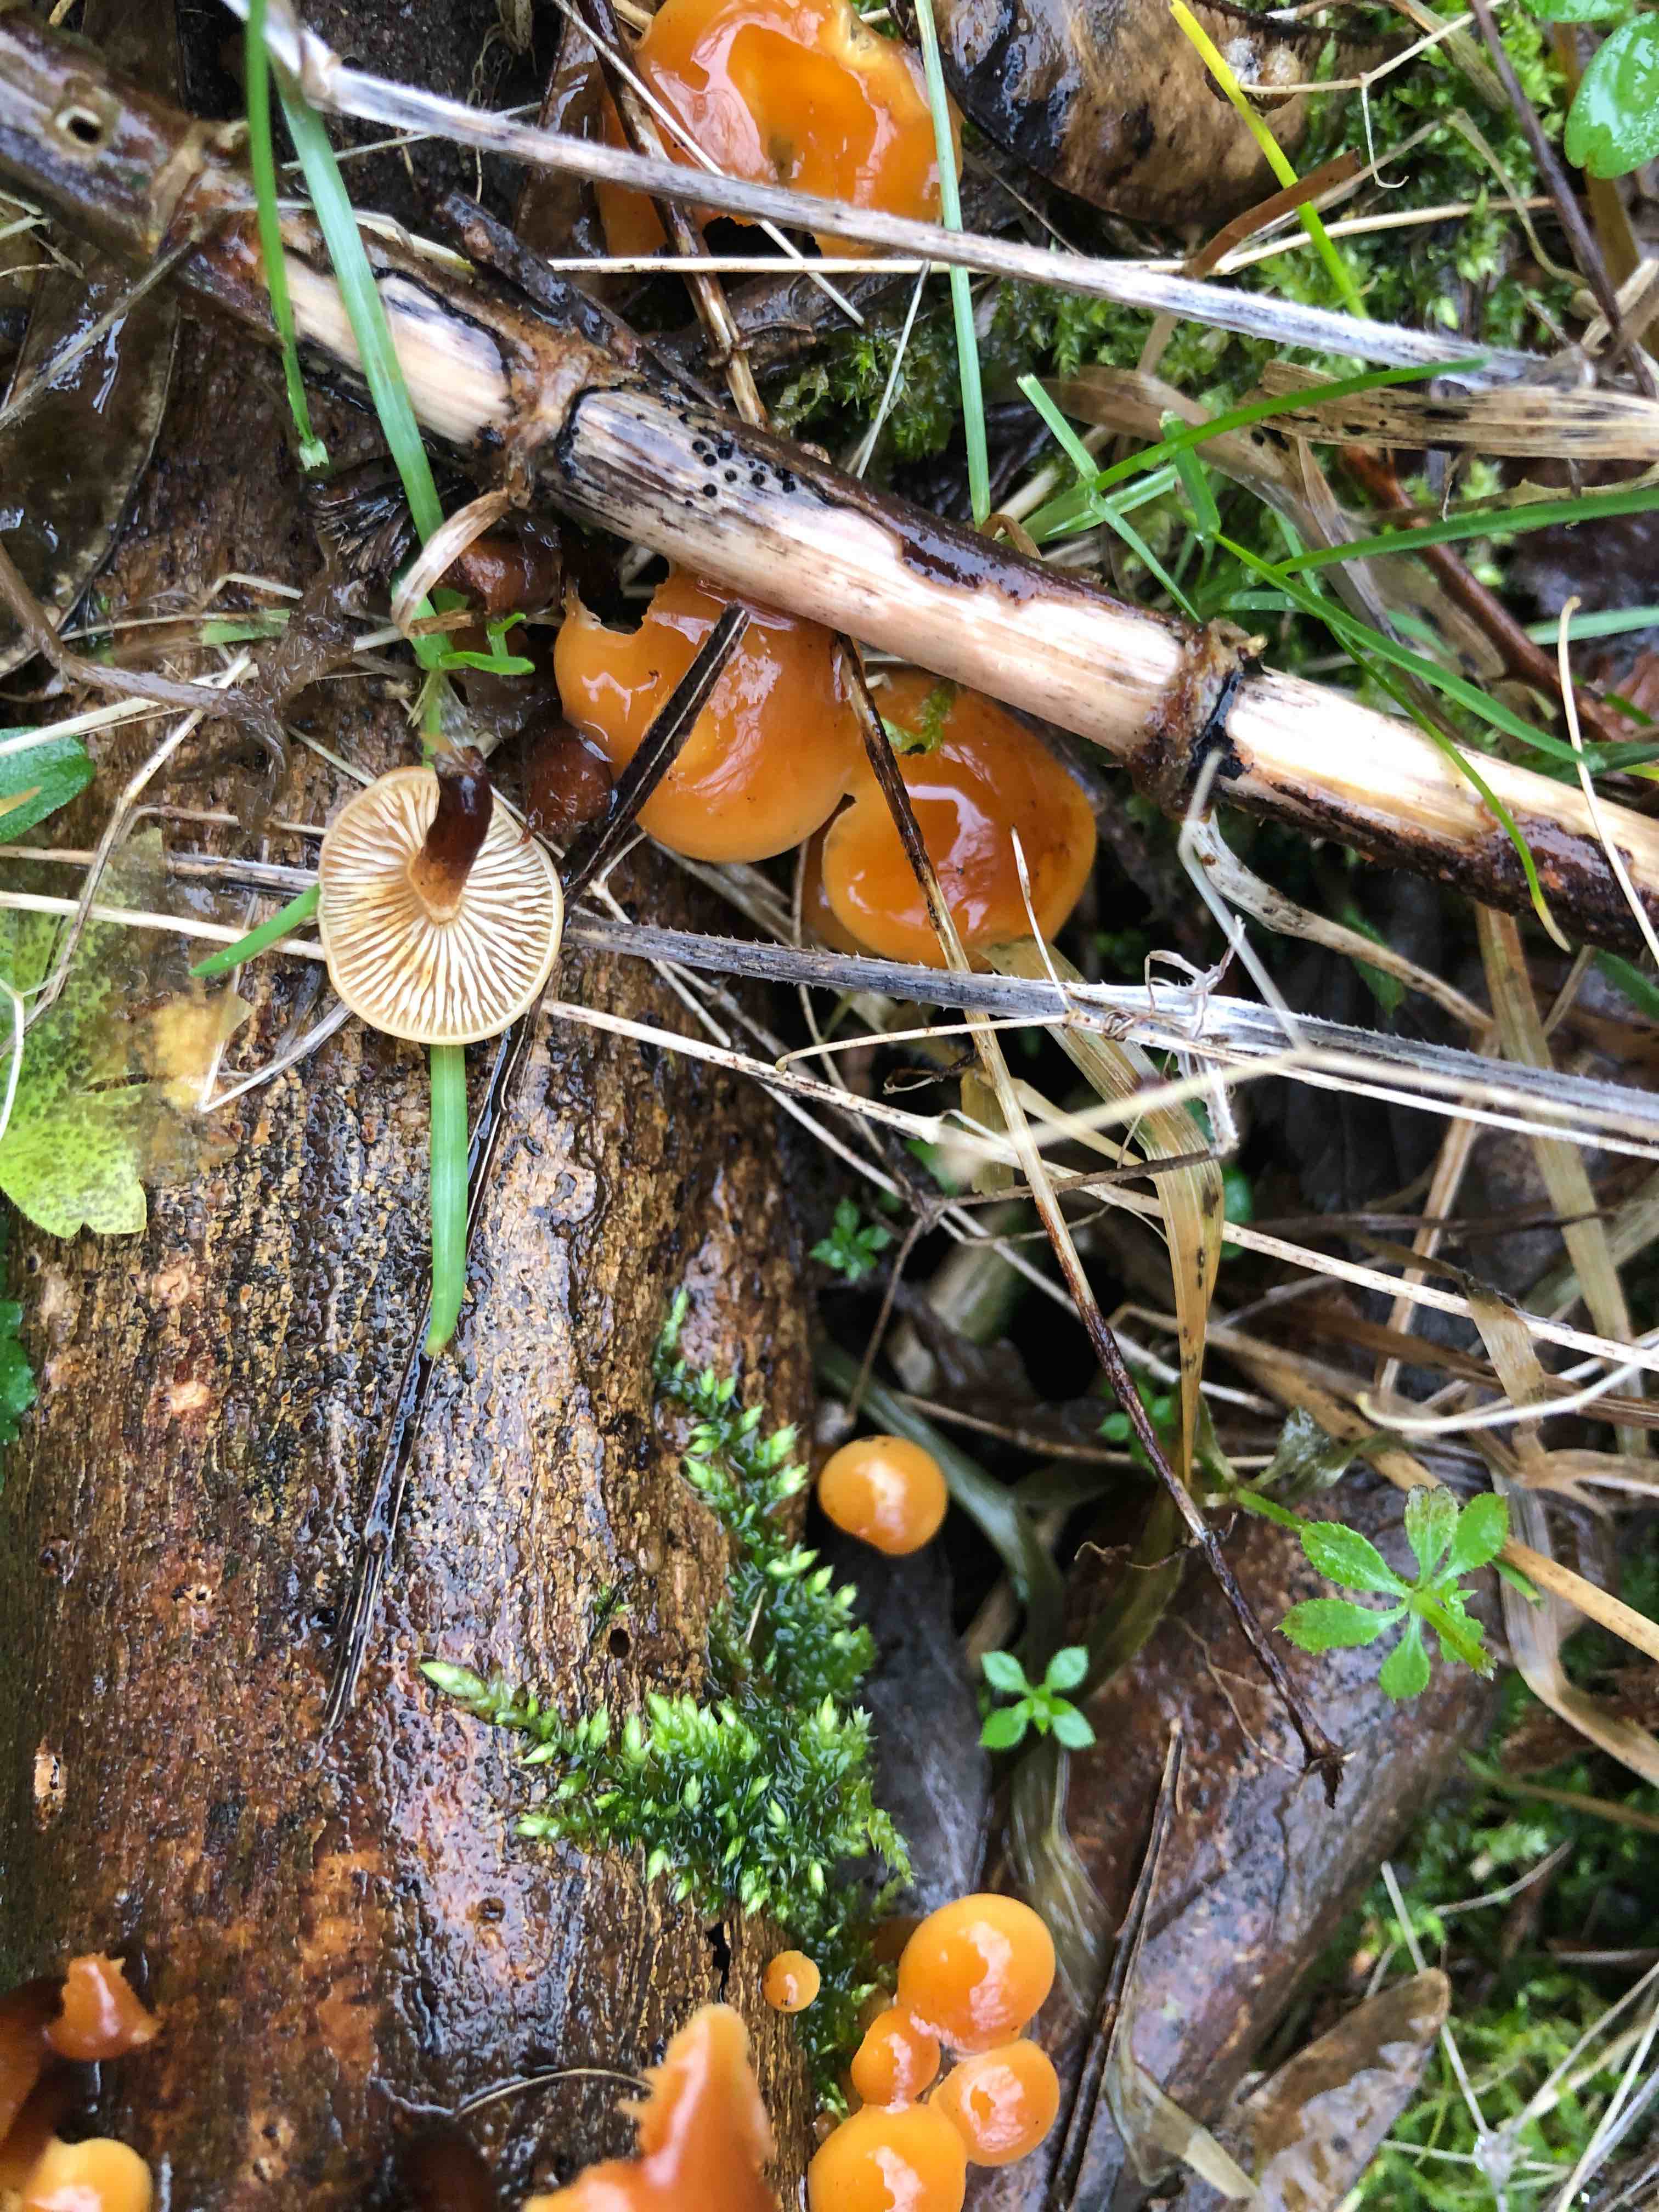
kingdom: Fungi
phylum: Basidiomycota
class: Agaricomycetes
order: Agaricales
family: Physalacriaceae
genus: Flammulina
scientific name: Flammulina velutipes
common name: gul fløjlsfod
